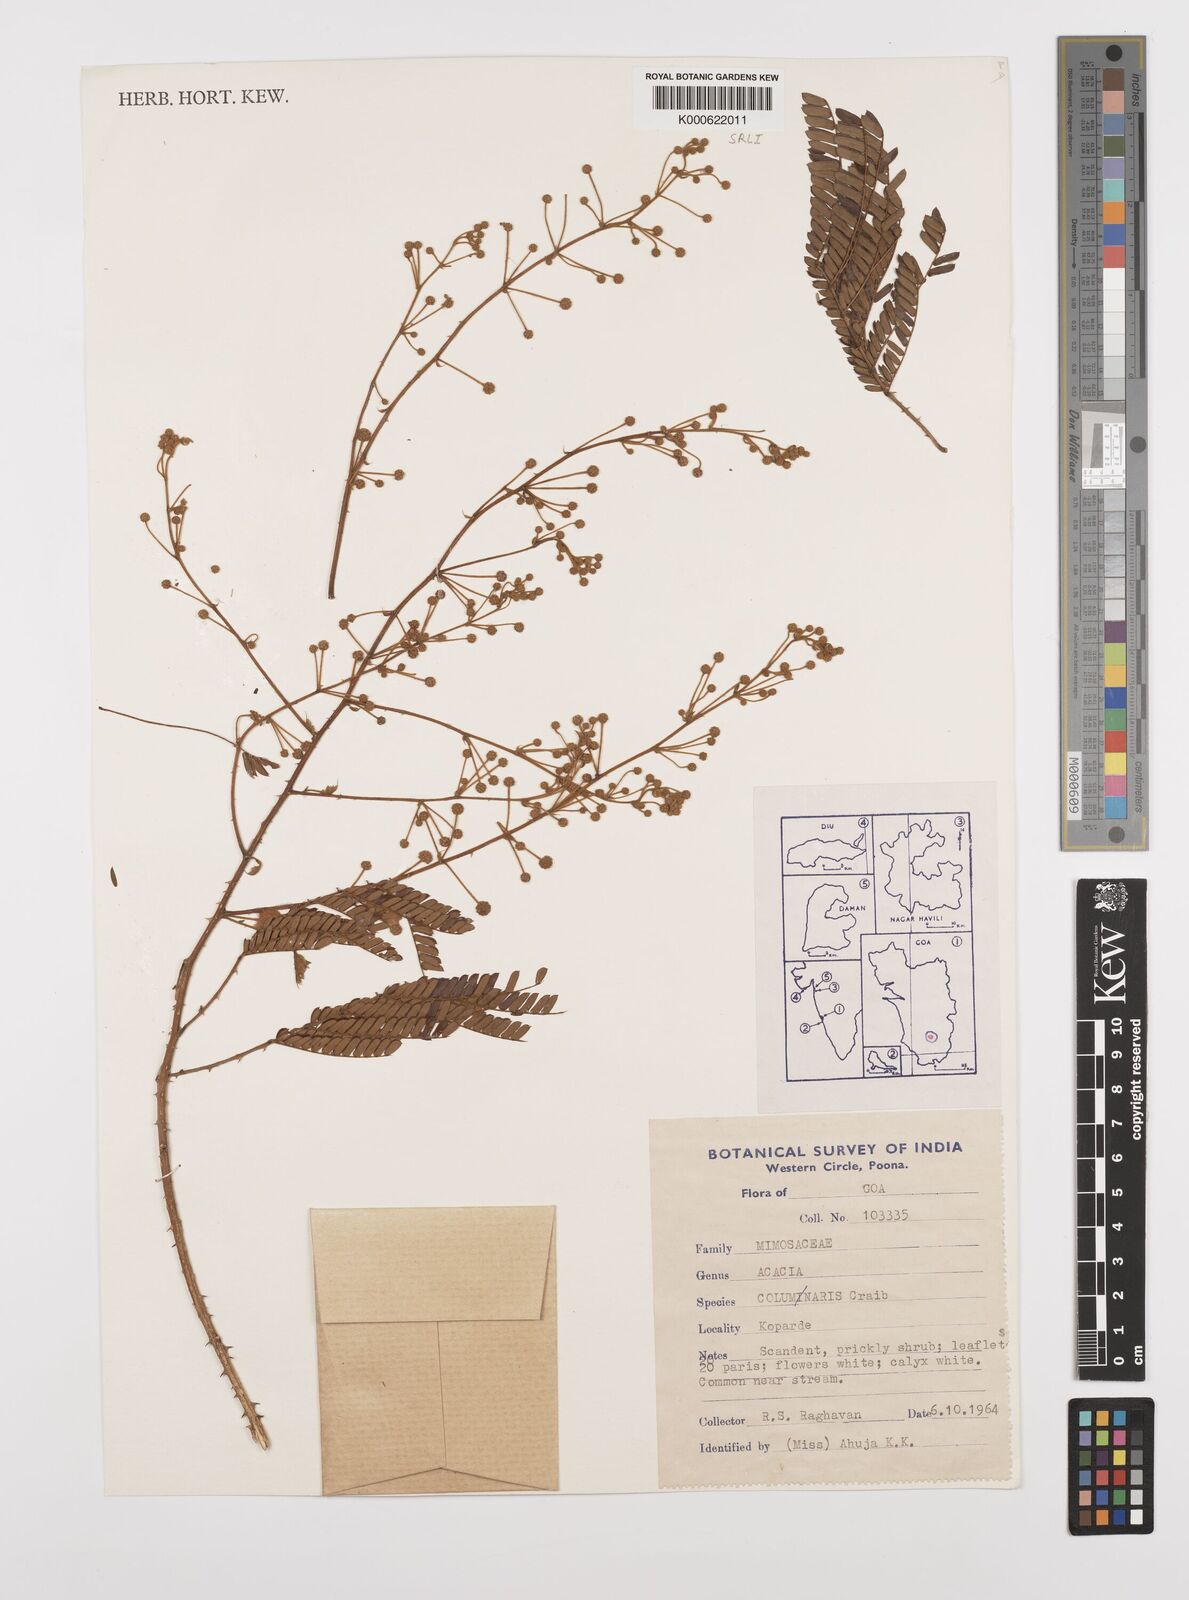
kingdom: Plantae
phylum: Tracheophyta
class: Magnoliopsida
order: Fabales
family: Fabaceae
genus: Senegalia
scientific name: Senegalia caesia
